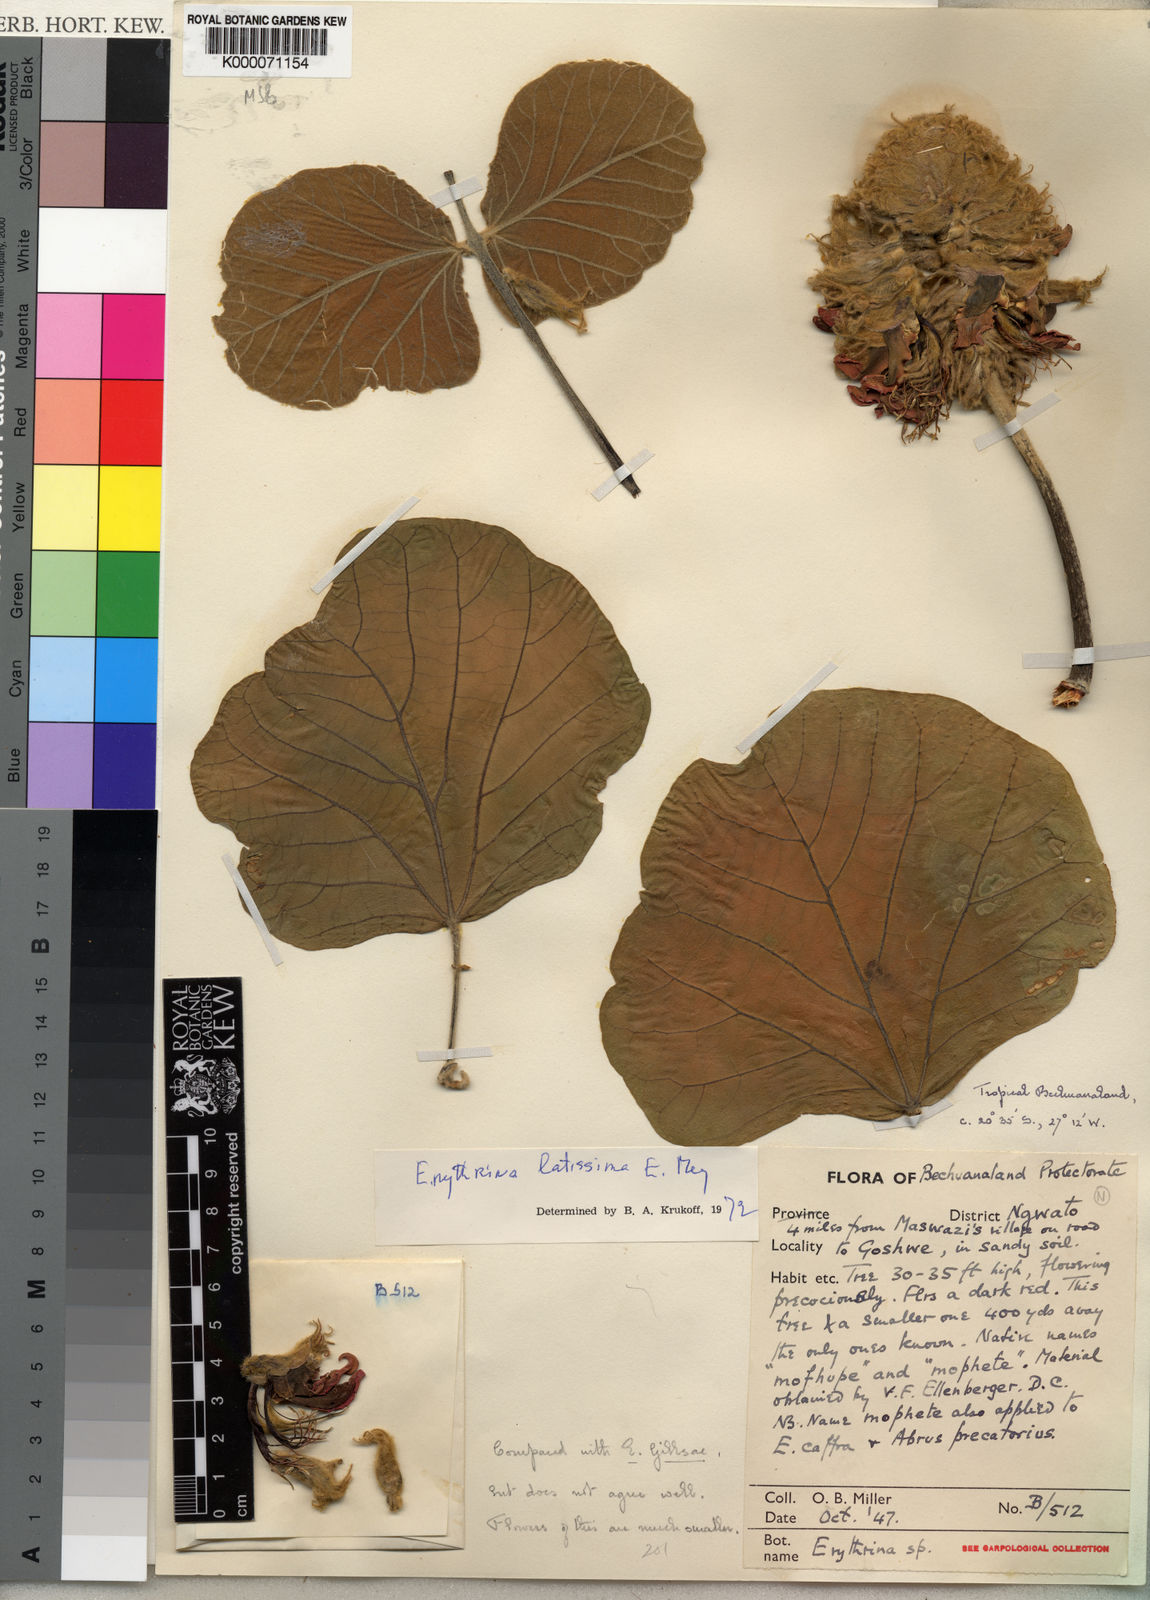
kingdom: Plantae
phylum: Tracheophyta
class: Magnoliopsida
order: Fabales
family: Fabaceae
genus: Erythrina
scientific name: Erythrina latissima
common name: Broad-leaved coral tree
